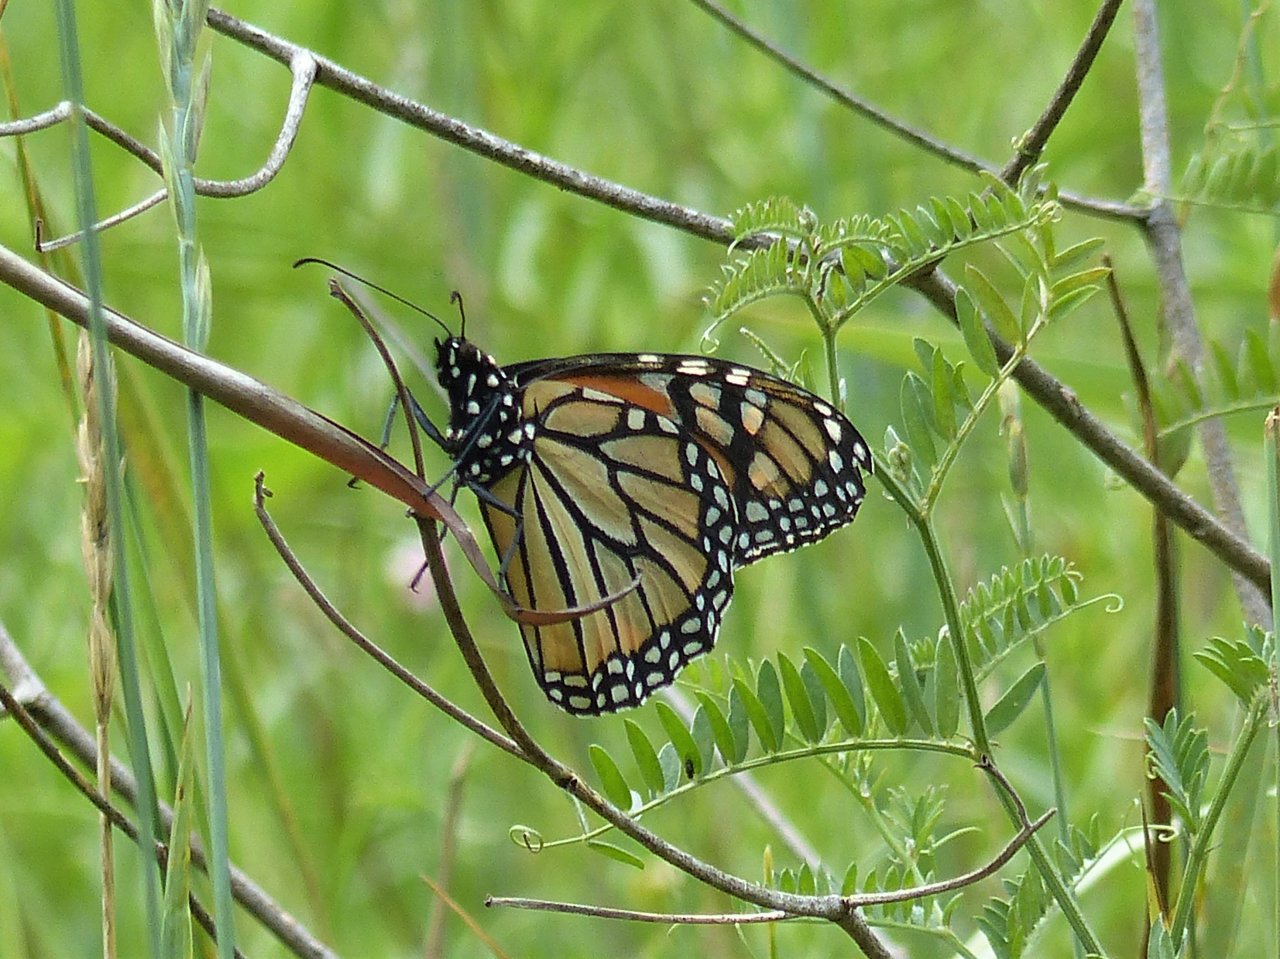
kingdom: Animalia
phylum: Arthropoda
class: Insecta
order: Lepidoptera
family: Nymphalidae
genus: Danaus
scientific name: Danaus plexippus
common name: Monarch
